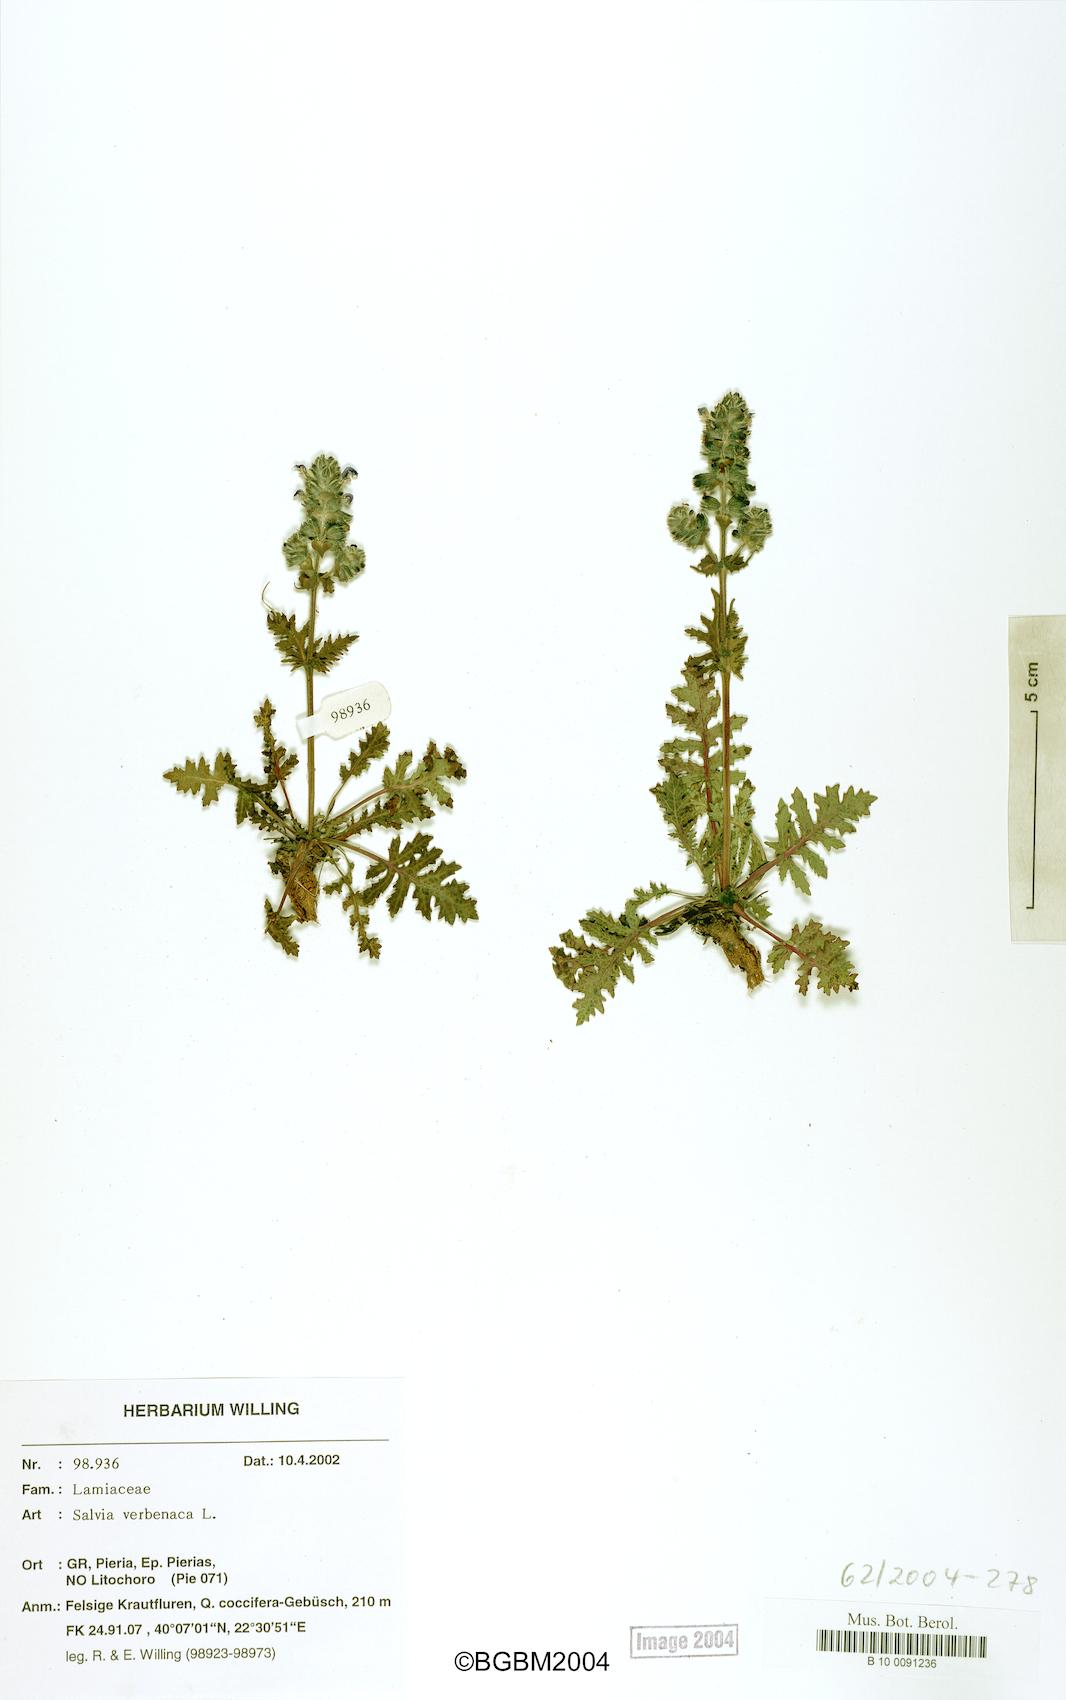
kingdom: Plantae
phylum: Tracheophyta
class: Magnoliopsida
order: Lamiales
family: Lamiaceae
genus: Salvia
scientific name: Salvia verbenaca
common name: Wild clary
